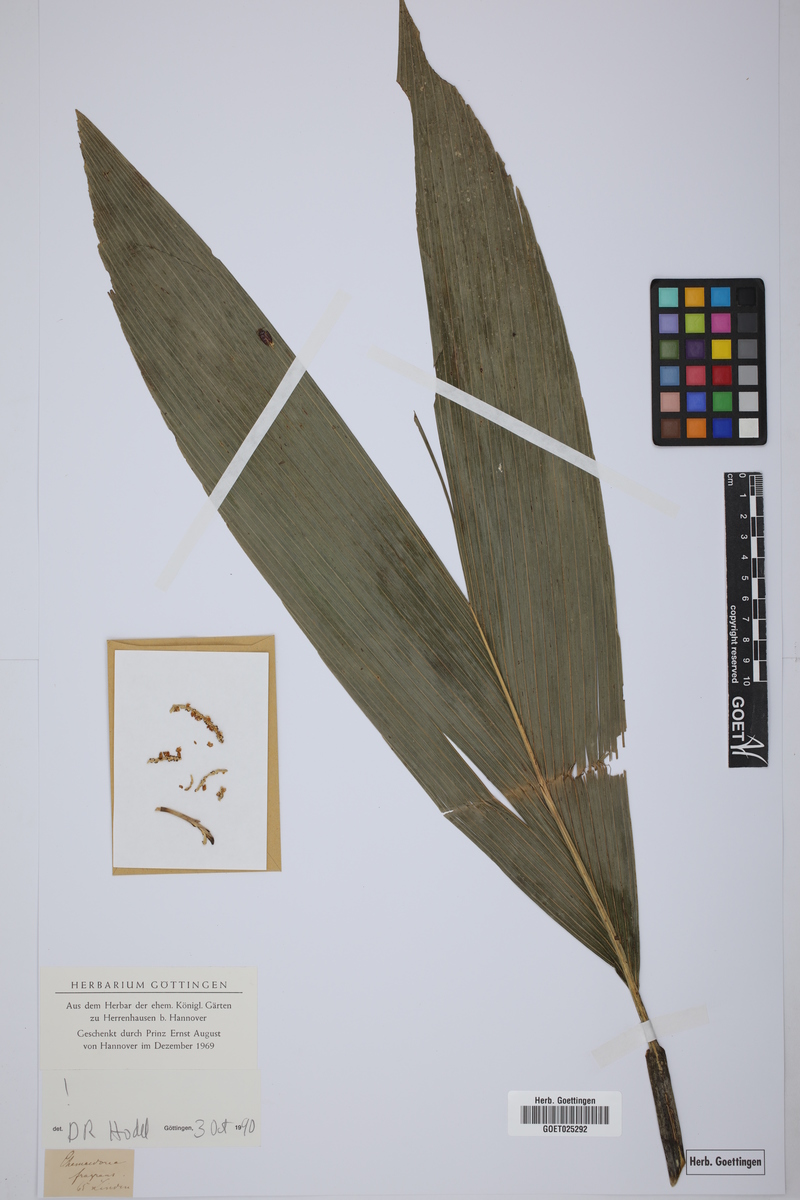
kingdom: Plantae
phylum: Tracheophyta
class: Liliopsida
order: Arecales
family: Arecaceae
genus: Chamaedorea
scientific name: Chamaedorea fragrans
